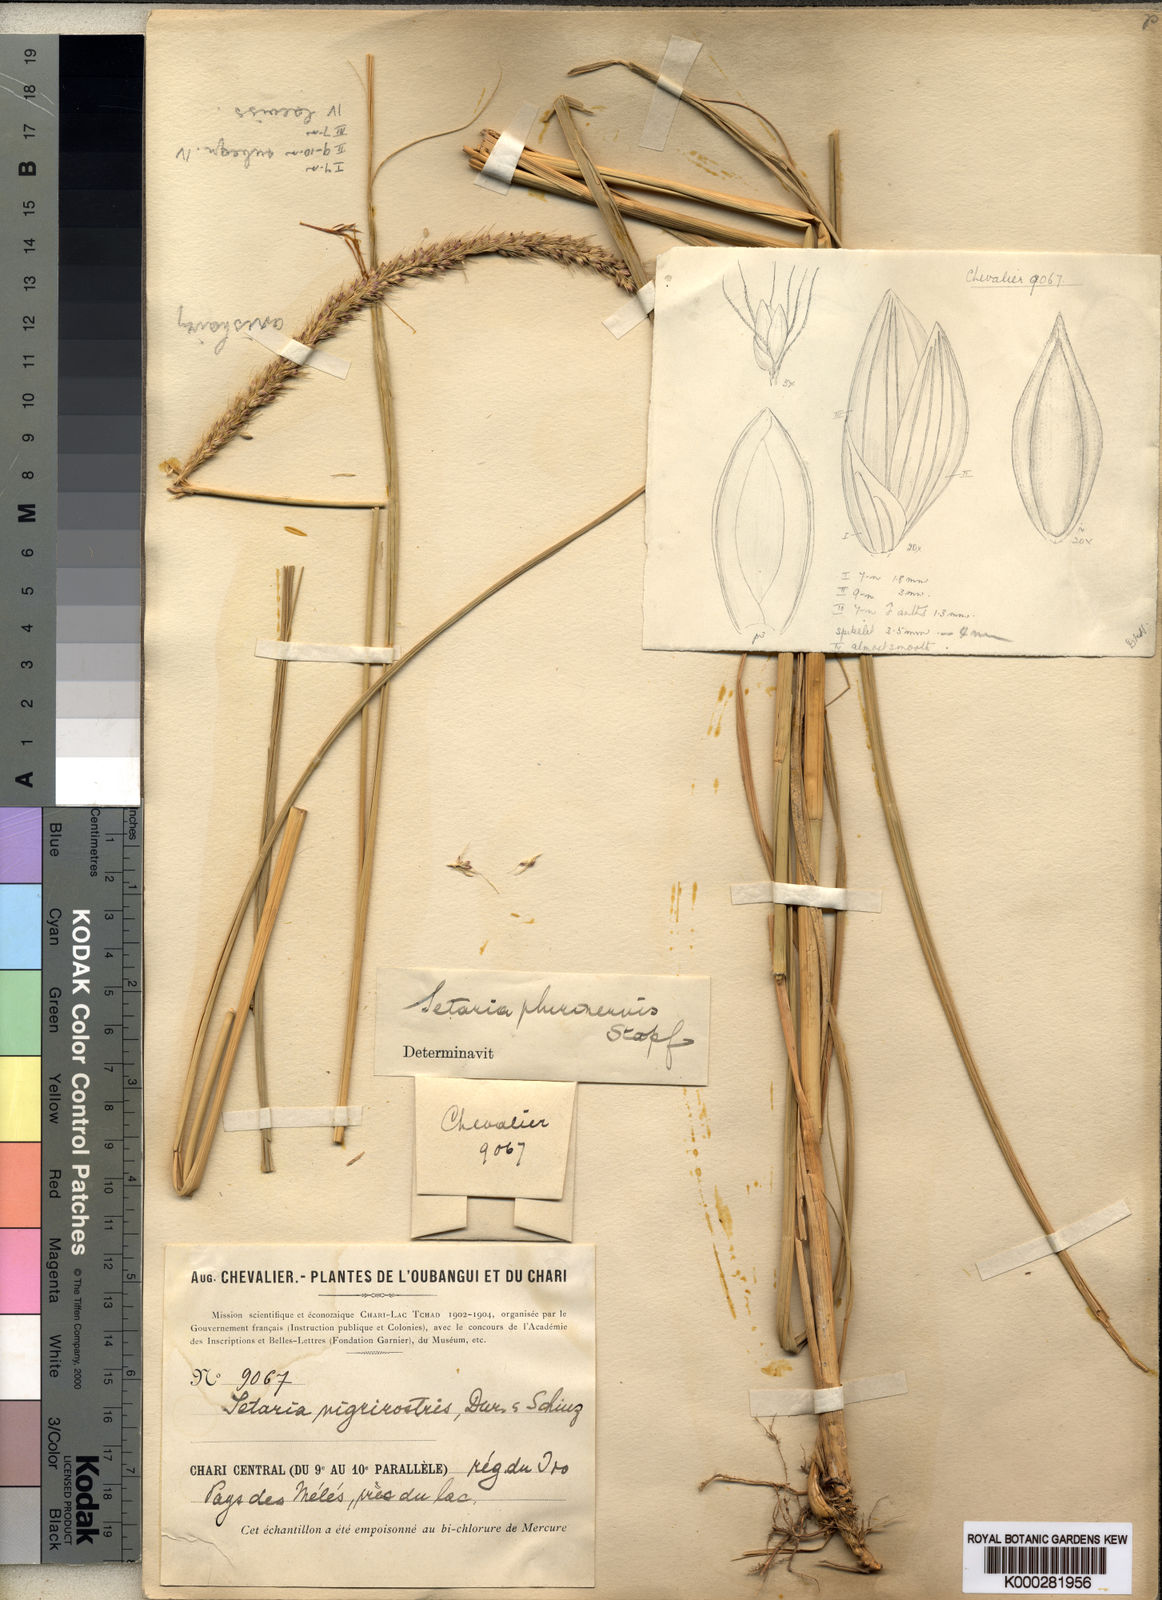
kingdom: Plantae
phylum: Tracheophyta
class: Liliopsida
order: Poales
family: Poaceae
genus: Setaria
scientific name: Setaria incrassata
